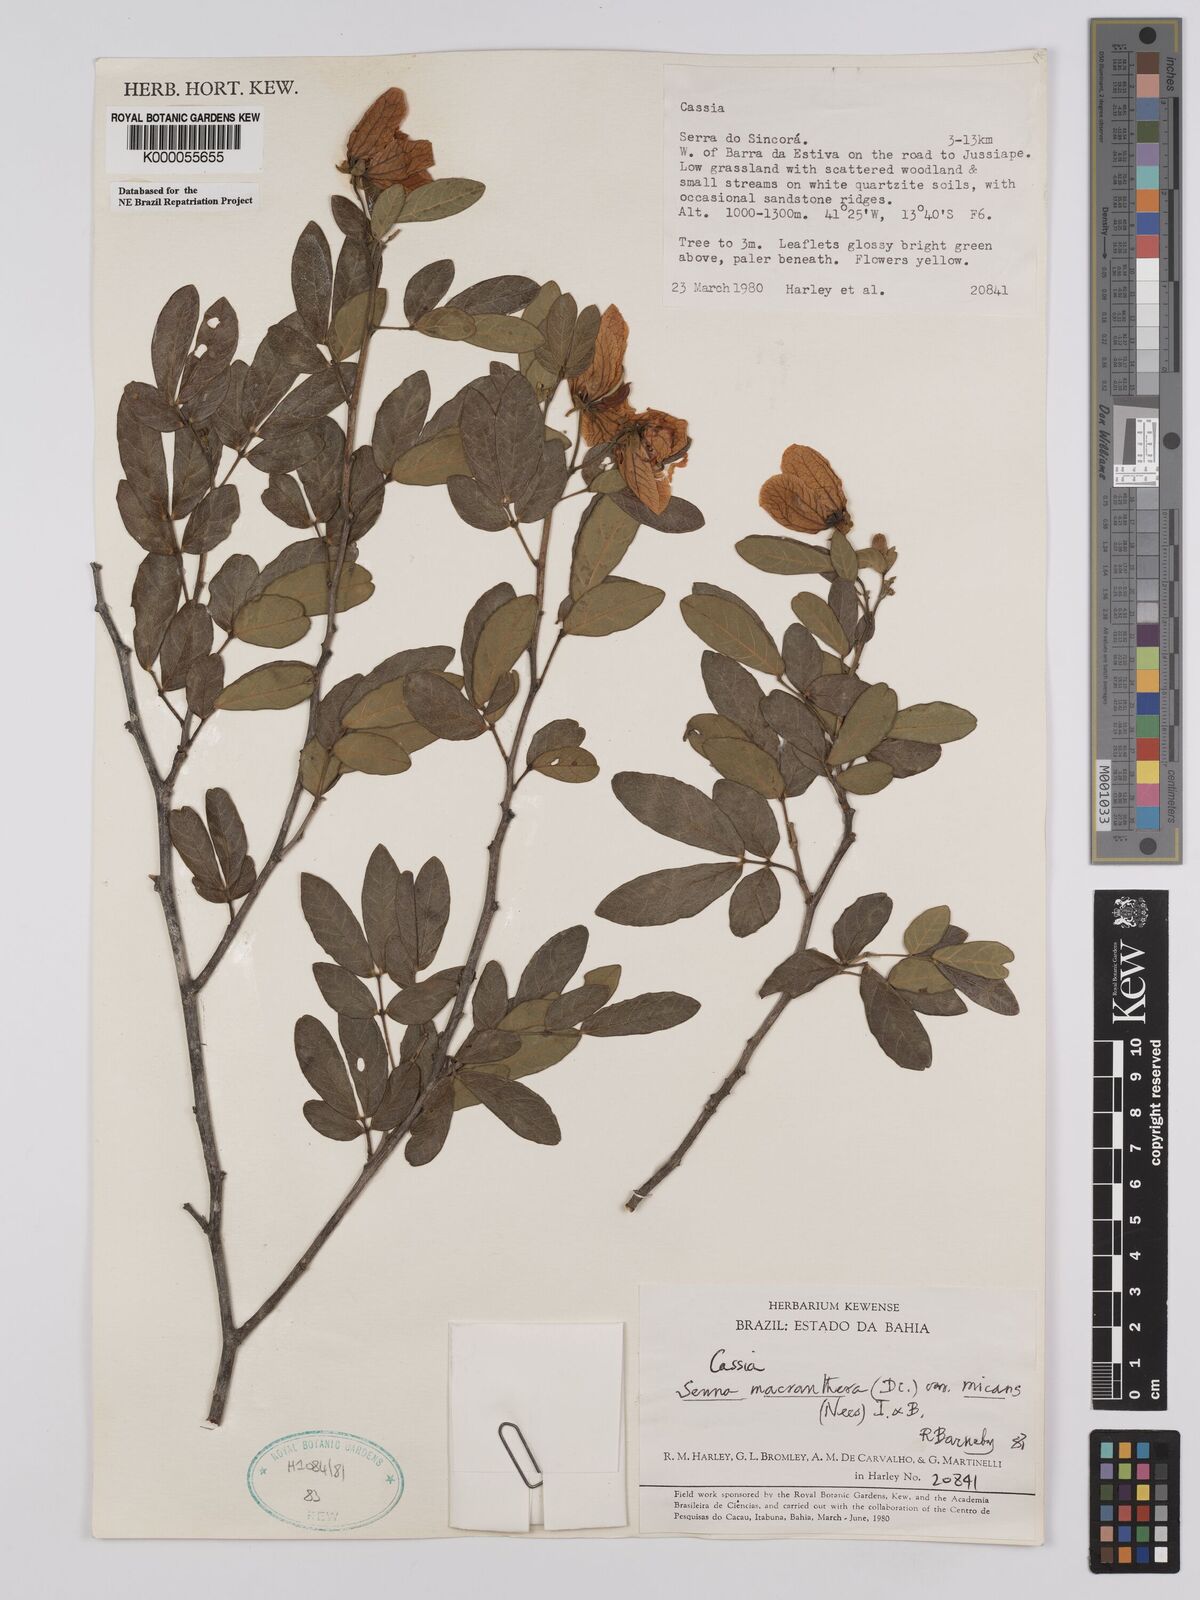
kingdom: Plantae
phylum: Tracheophyta
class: Magnoliopsida
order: Fabales
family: Fabaceae
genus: Senna
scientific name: Senna macranthera
